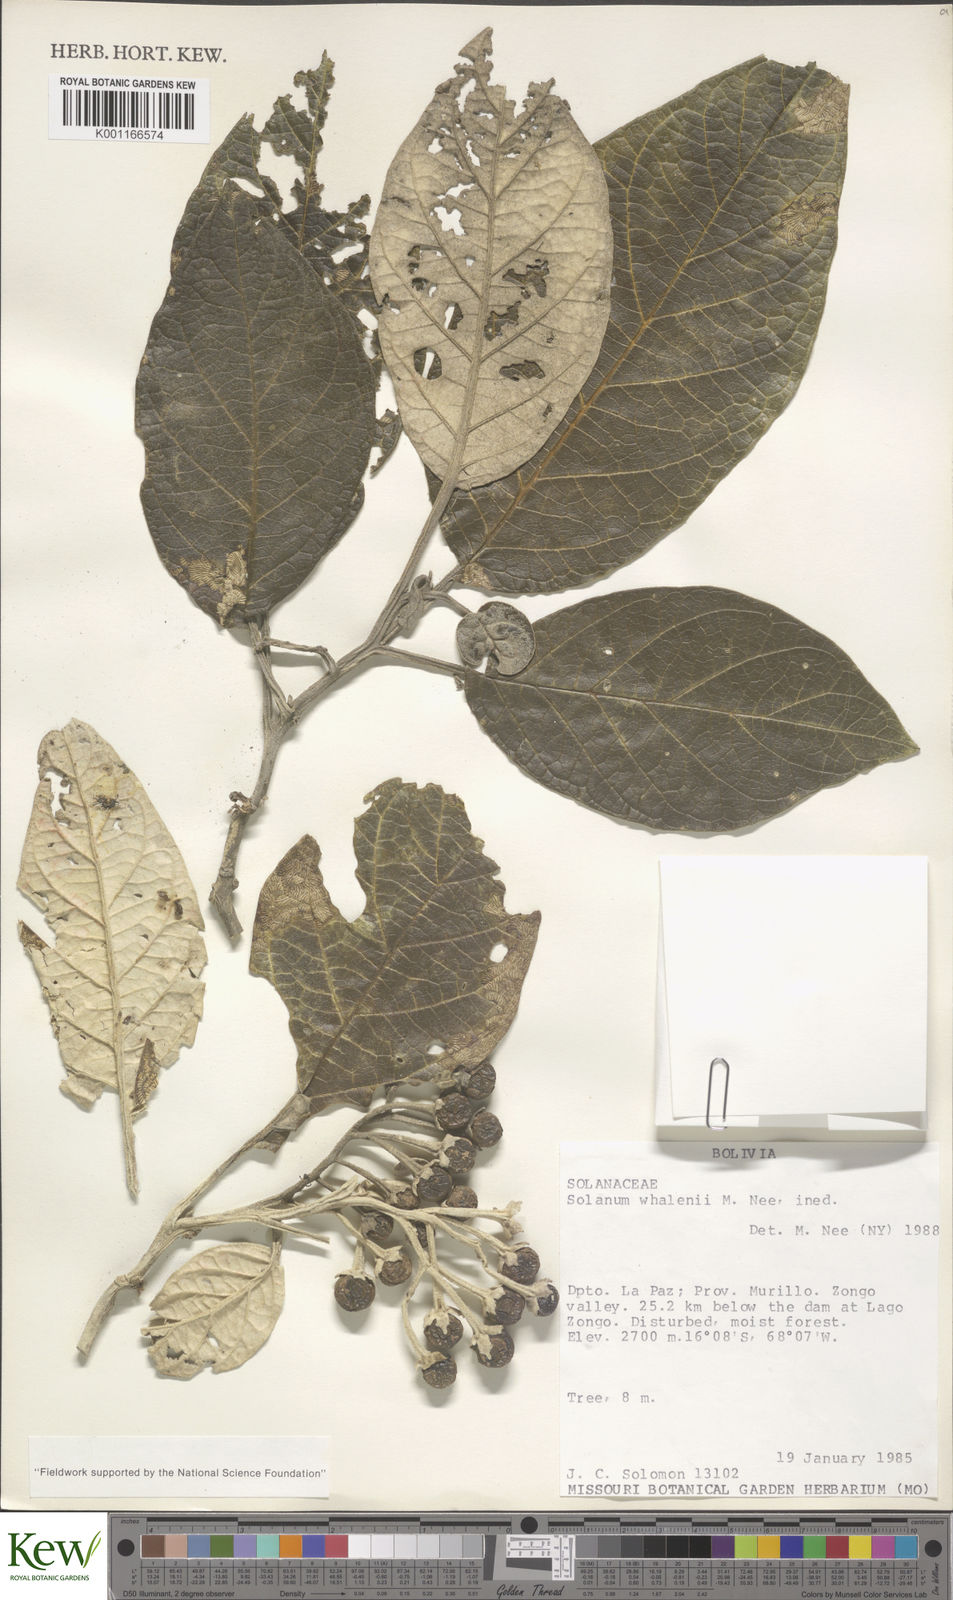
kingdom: Plantae
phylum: Tracheophyta
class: Magnoliopsida
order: Solanales
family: Solanaceae
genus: Solanum
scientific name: Solanum whalenii
